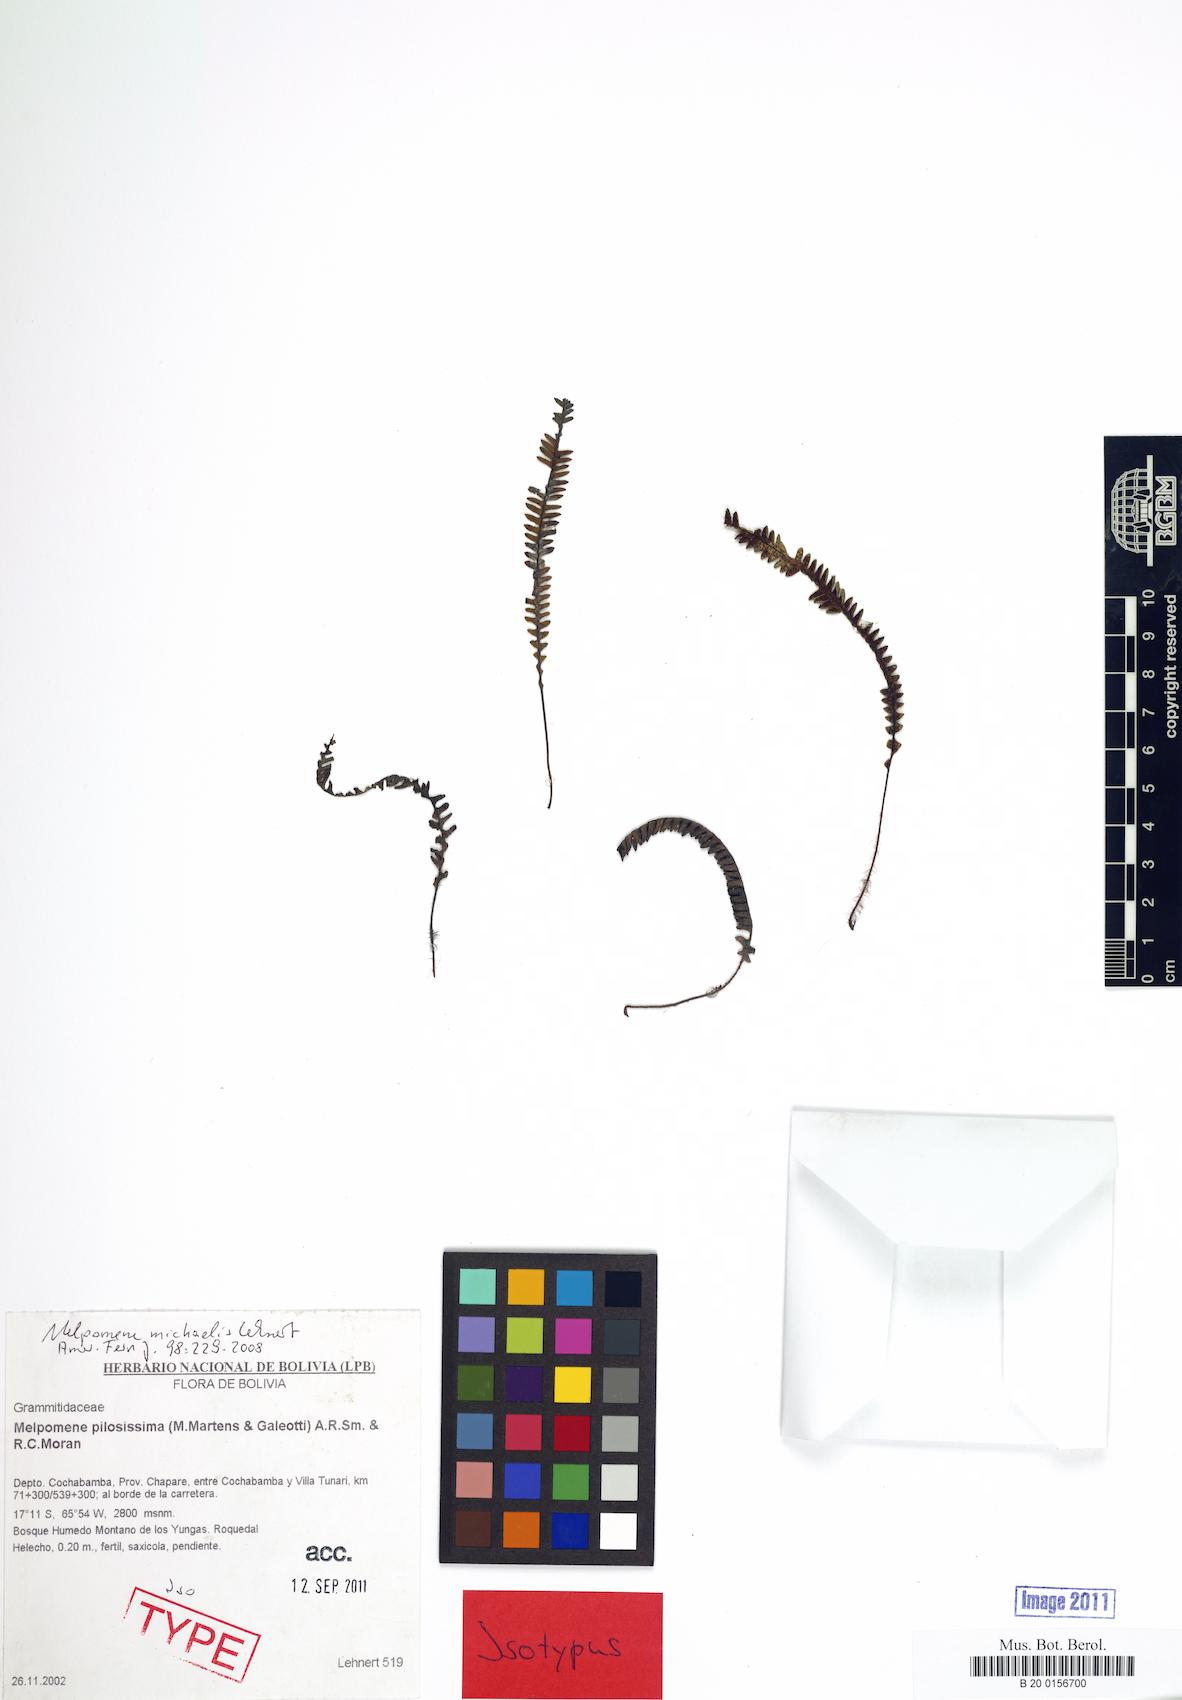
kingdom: Plantae
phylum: Tracheophyta
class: Polypodiopsida
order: Polypodiales
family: Polypodiaceae
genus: Melpomene
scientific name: Melpomene michaelis
